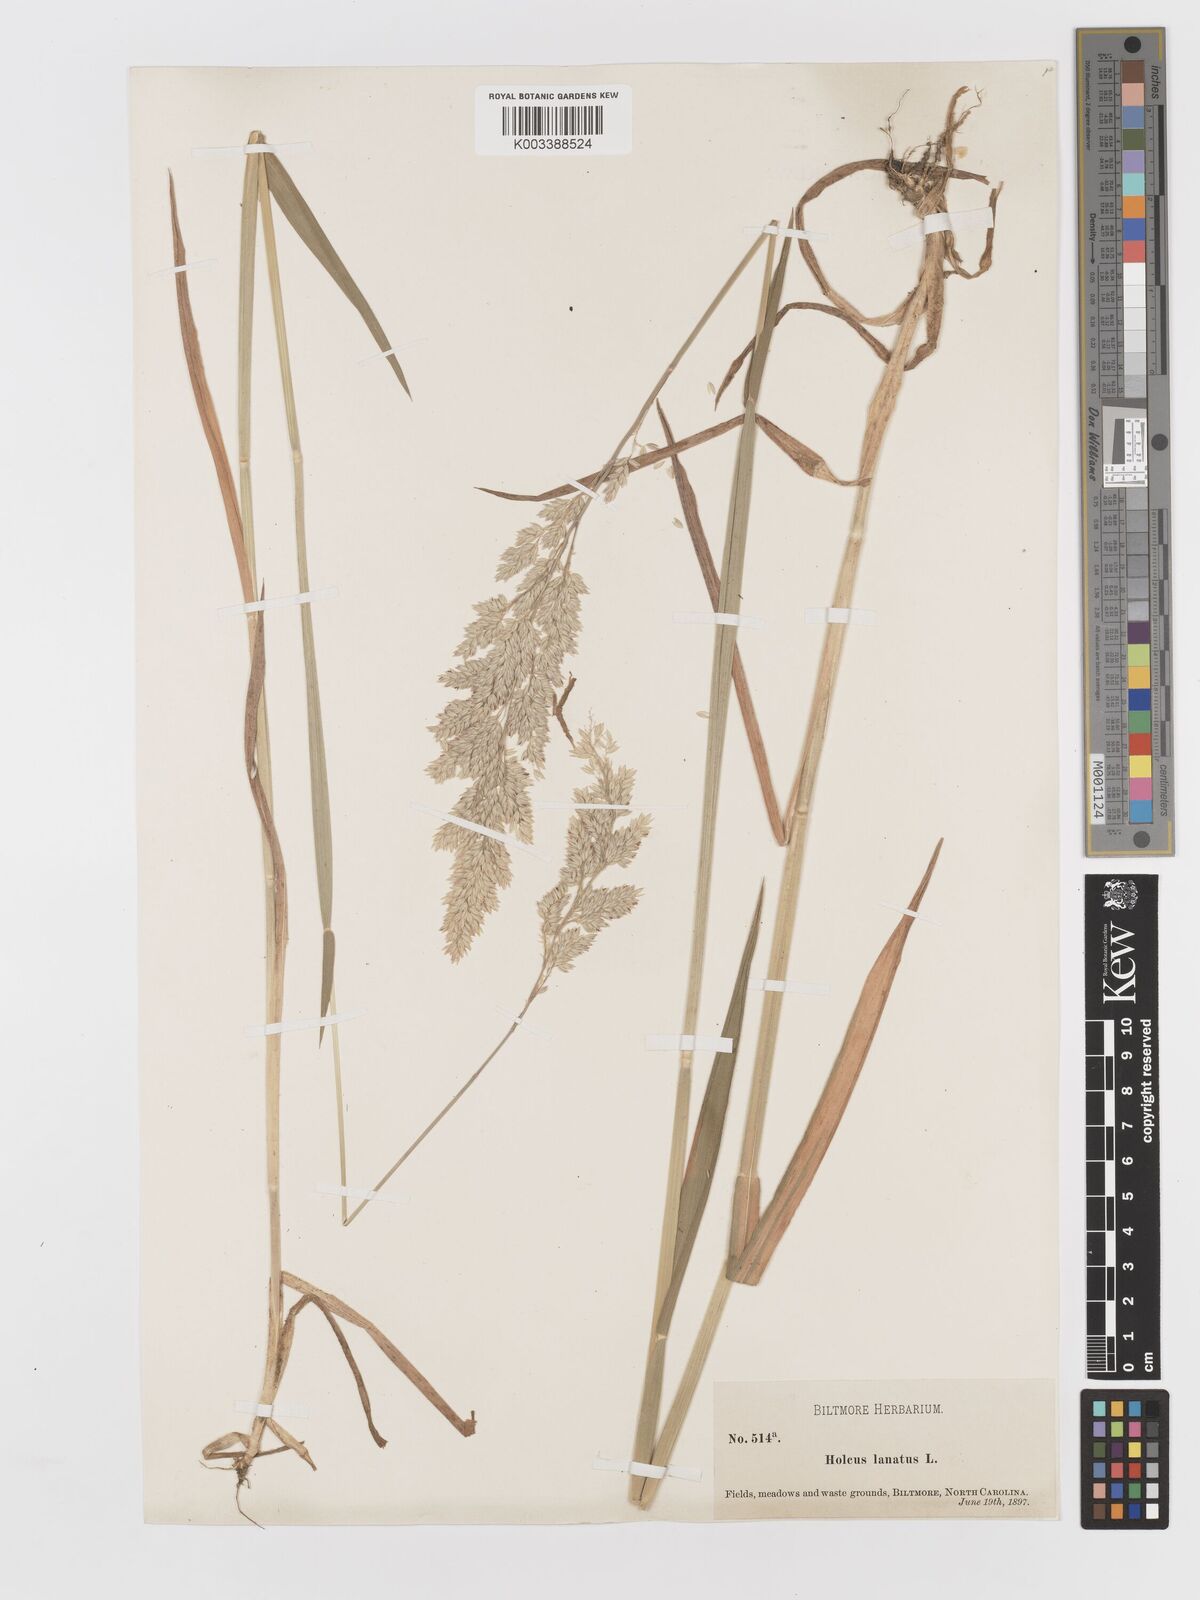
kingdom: Plantae
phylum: Tracheophyta
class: Liliopsida
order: Poales
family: Poaceae
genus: Holcus
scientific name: Holcus lanatus
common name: Yorkshire-fog
